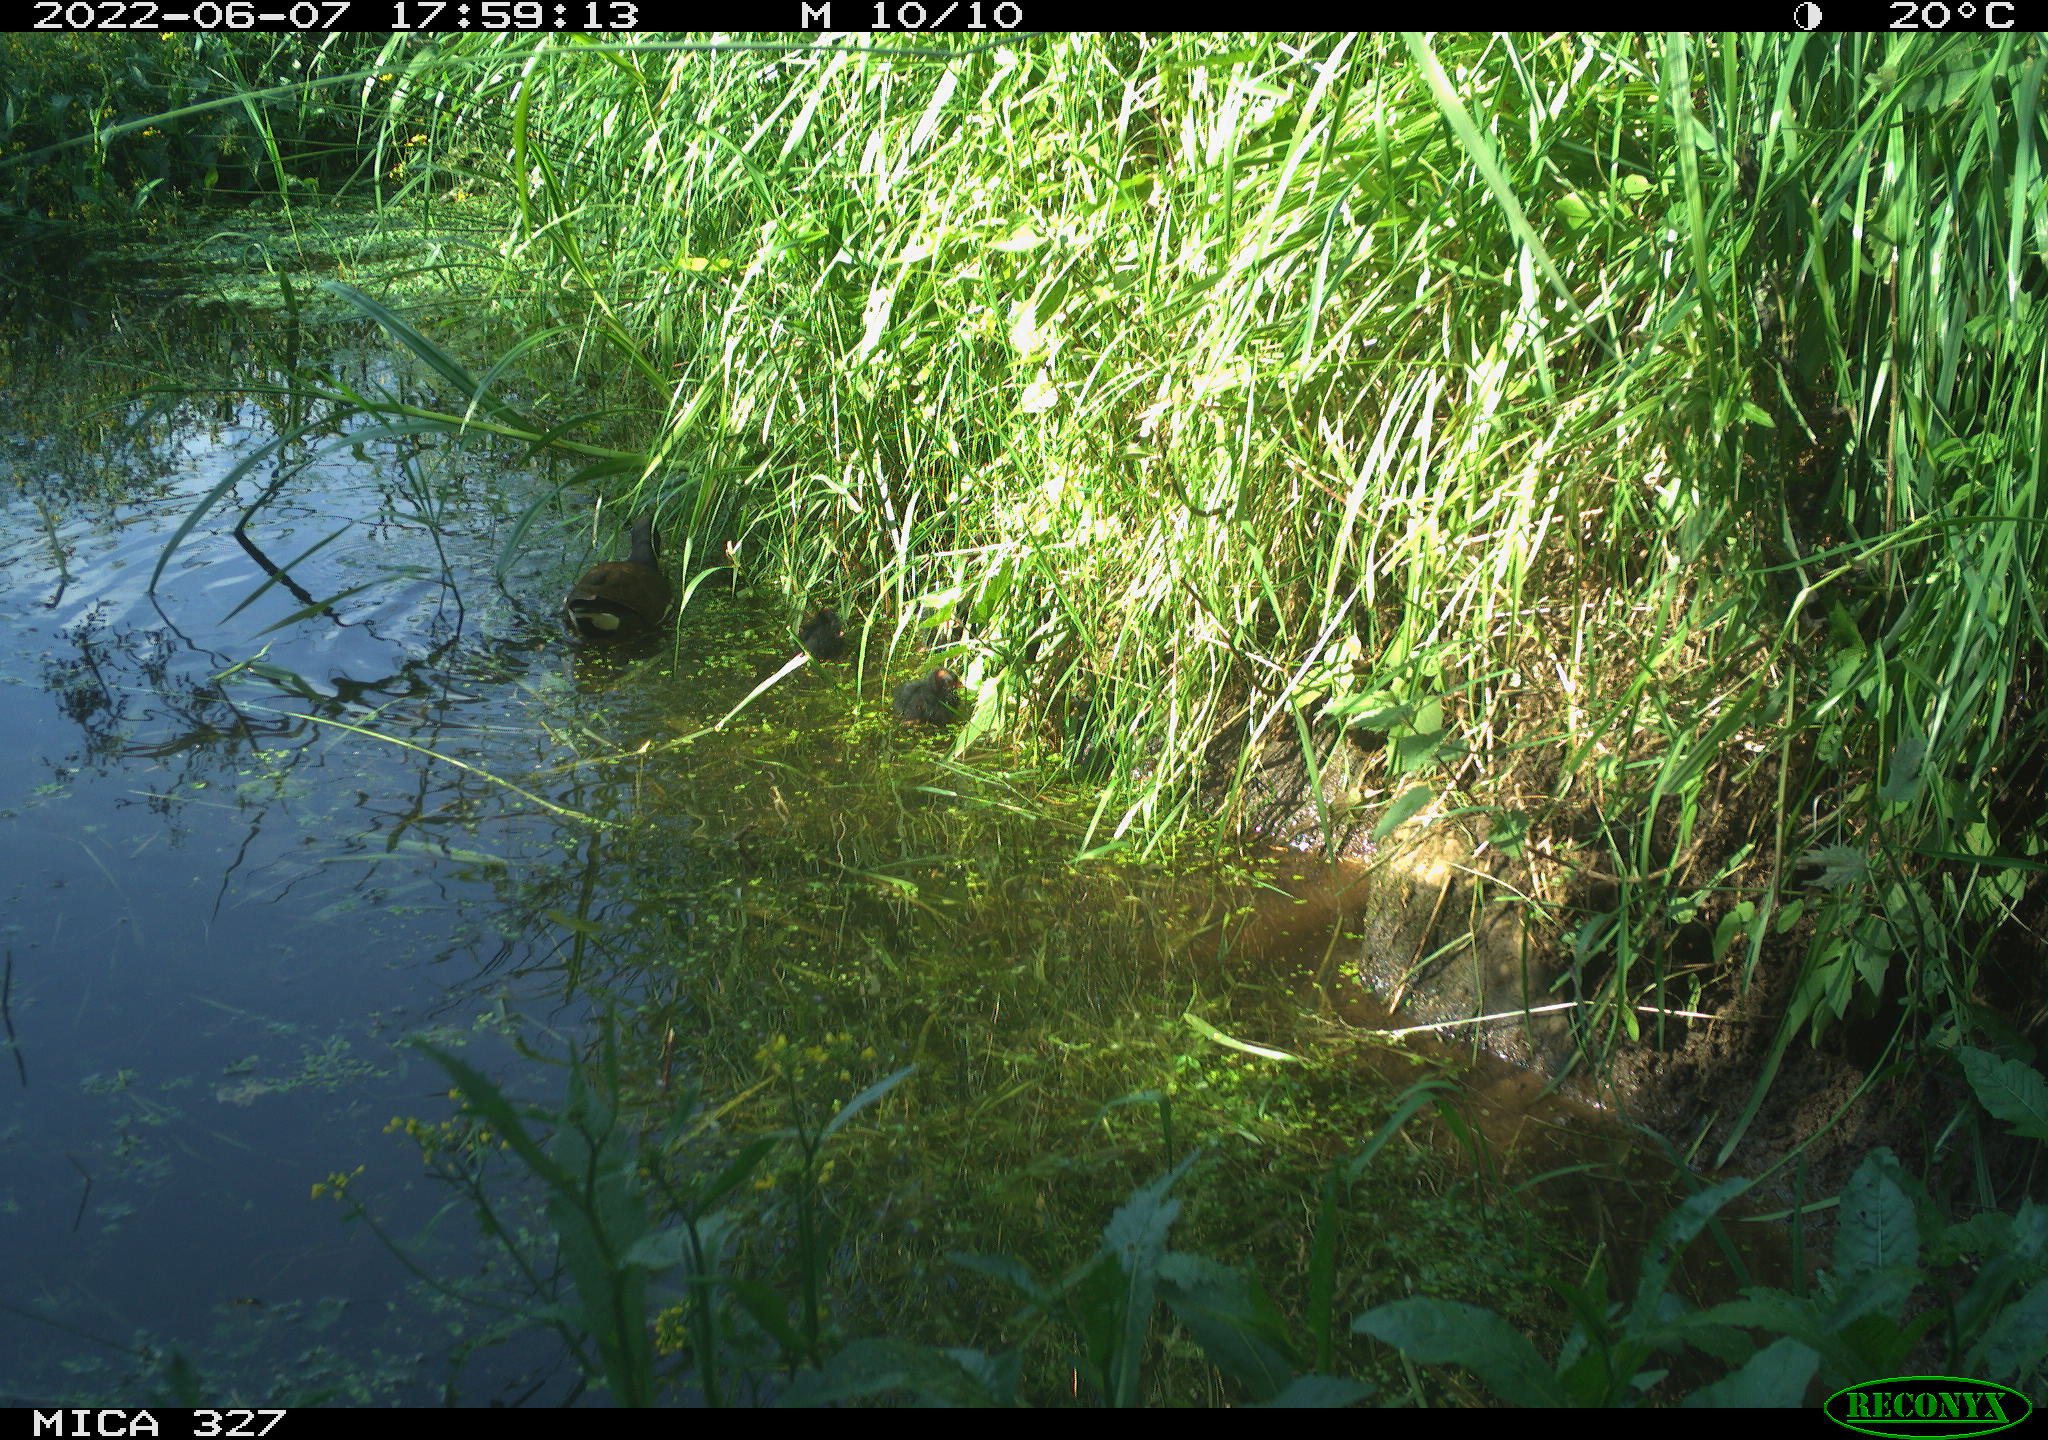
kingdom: Animalia
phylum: Chordata
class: Aves
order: Gruiformes
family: Rallidae
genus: Gallinula
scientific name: Gallinula chloropus
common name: Common moorhen
